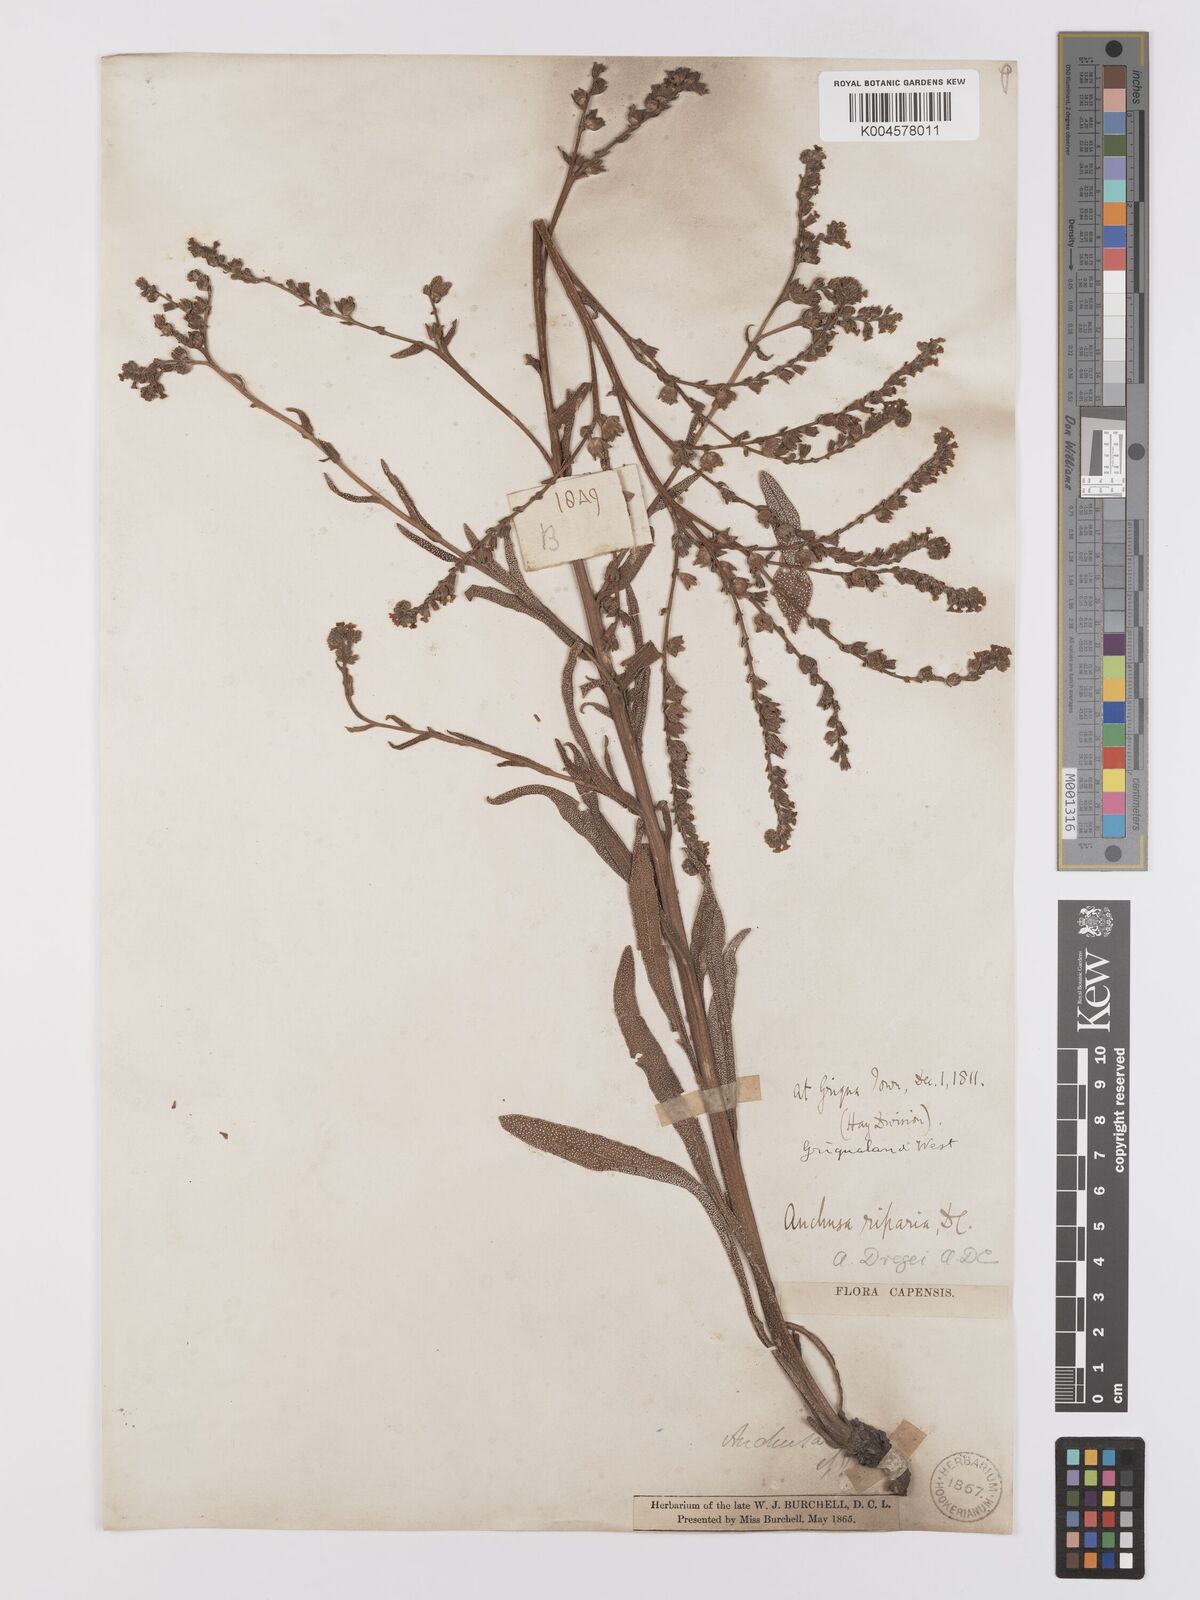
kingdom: Plantae
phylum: Tracheophyta
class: Magnoliopsida
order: Boraginales
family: Boraginaceae
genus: Anchusa
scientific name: Anchusa capensis
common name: Cape bugloss
